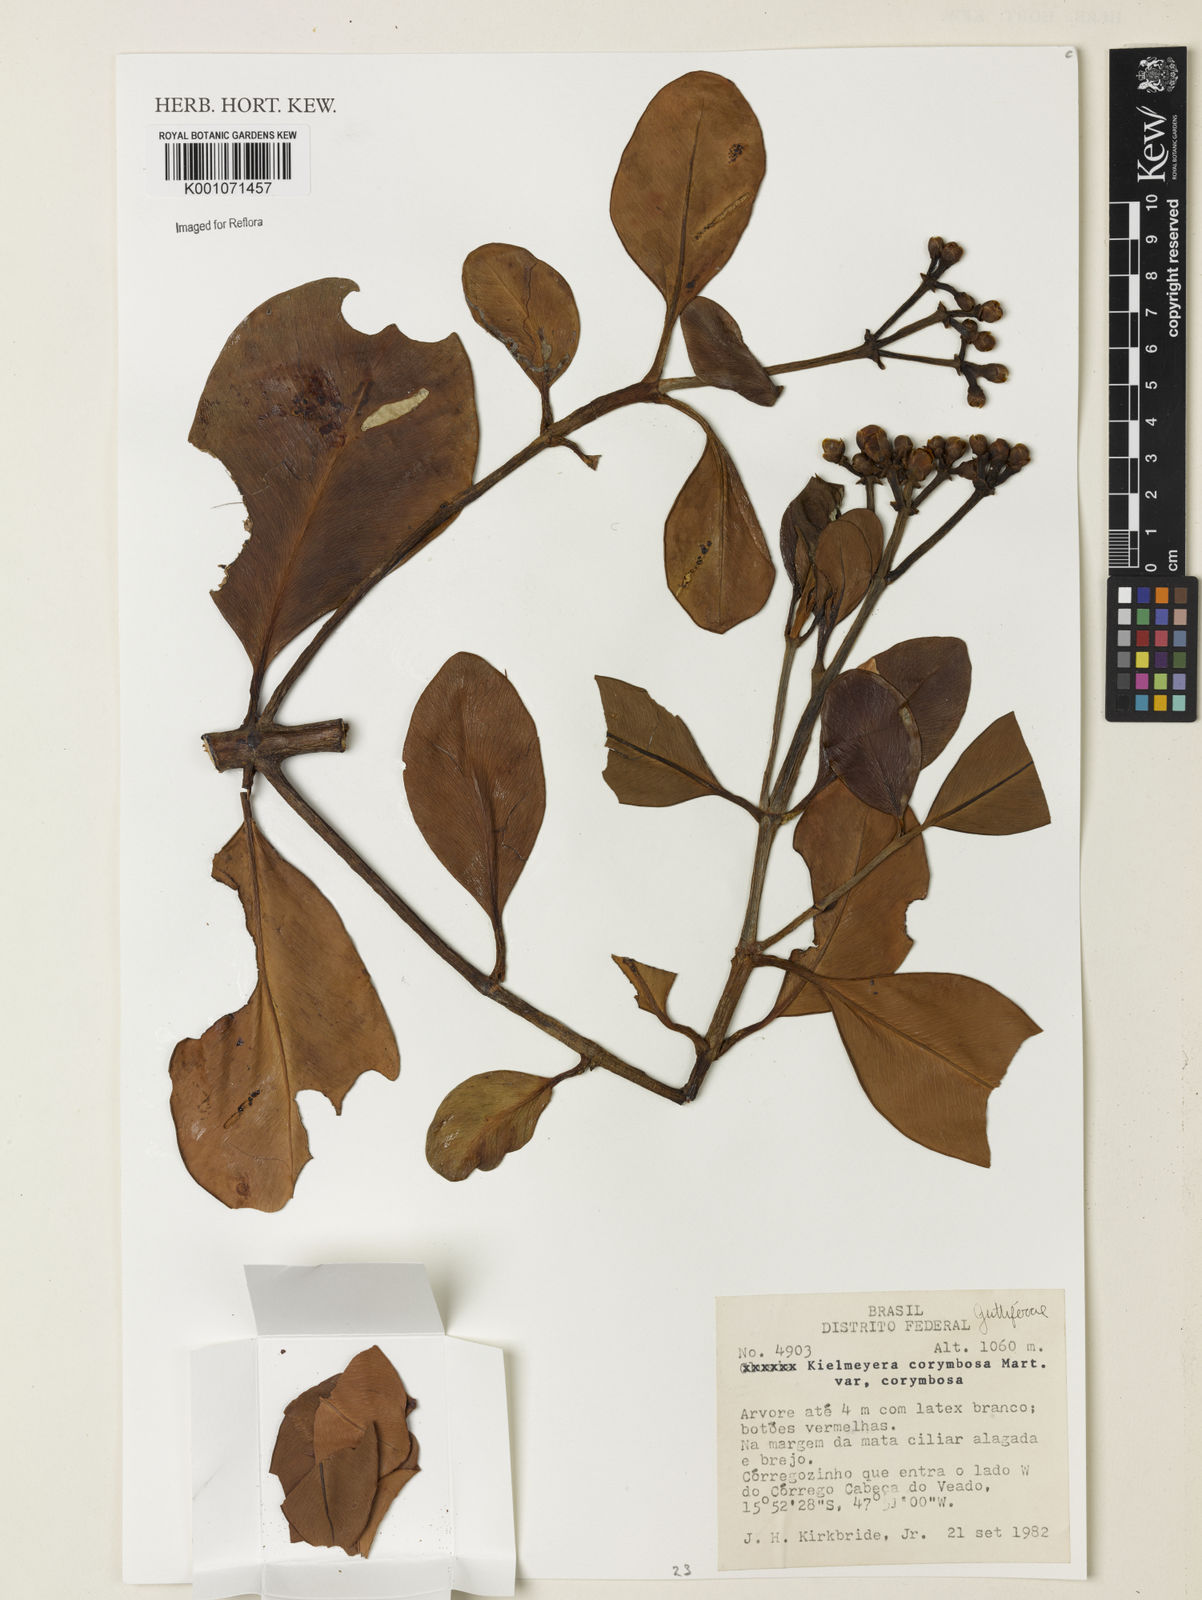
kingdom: Plantae
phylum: Tracheophyta
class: Magnoliopsida
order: Malpighiales
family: Calophyllaceae
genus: Kielmeyera
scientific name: Kielmeyera corymbosa
